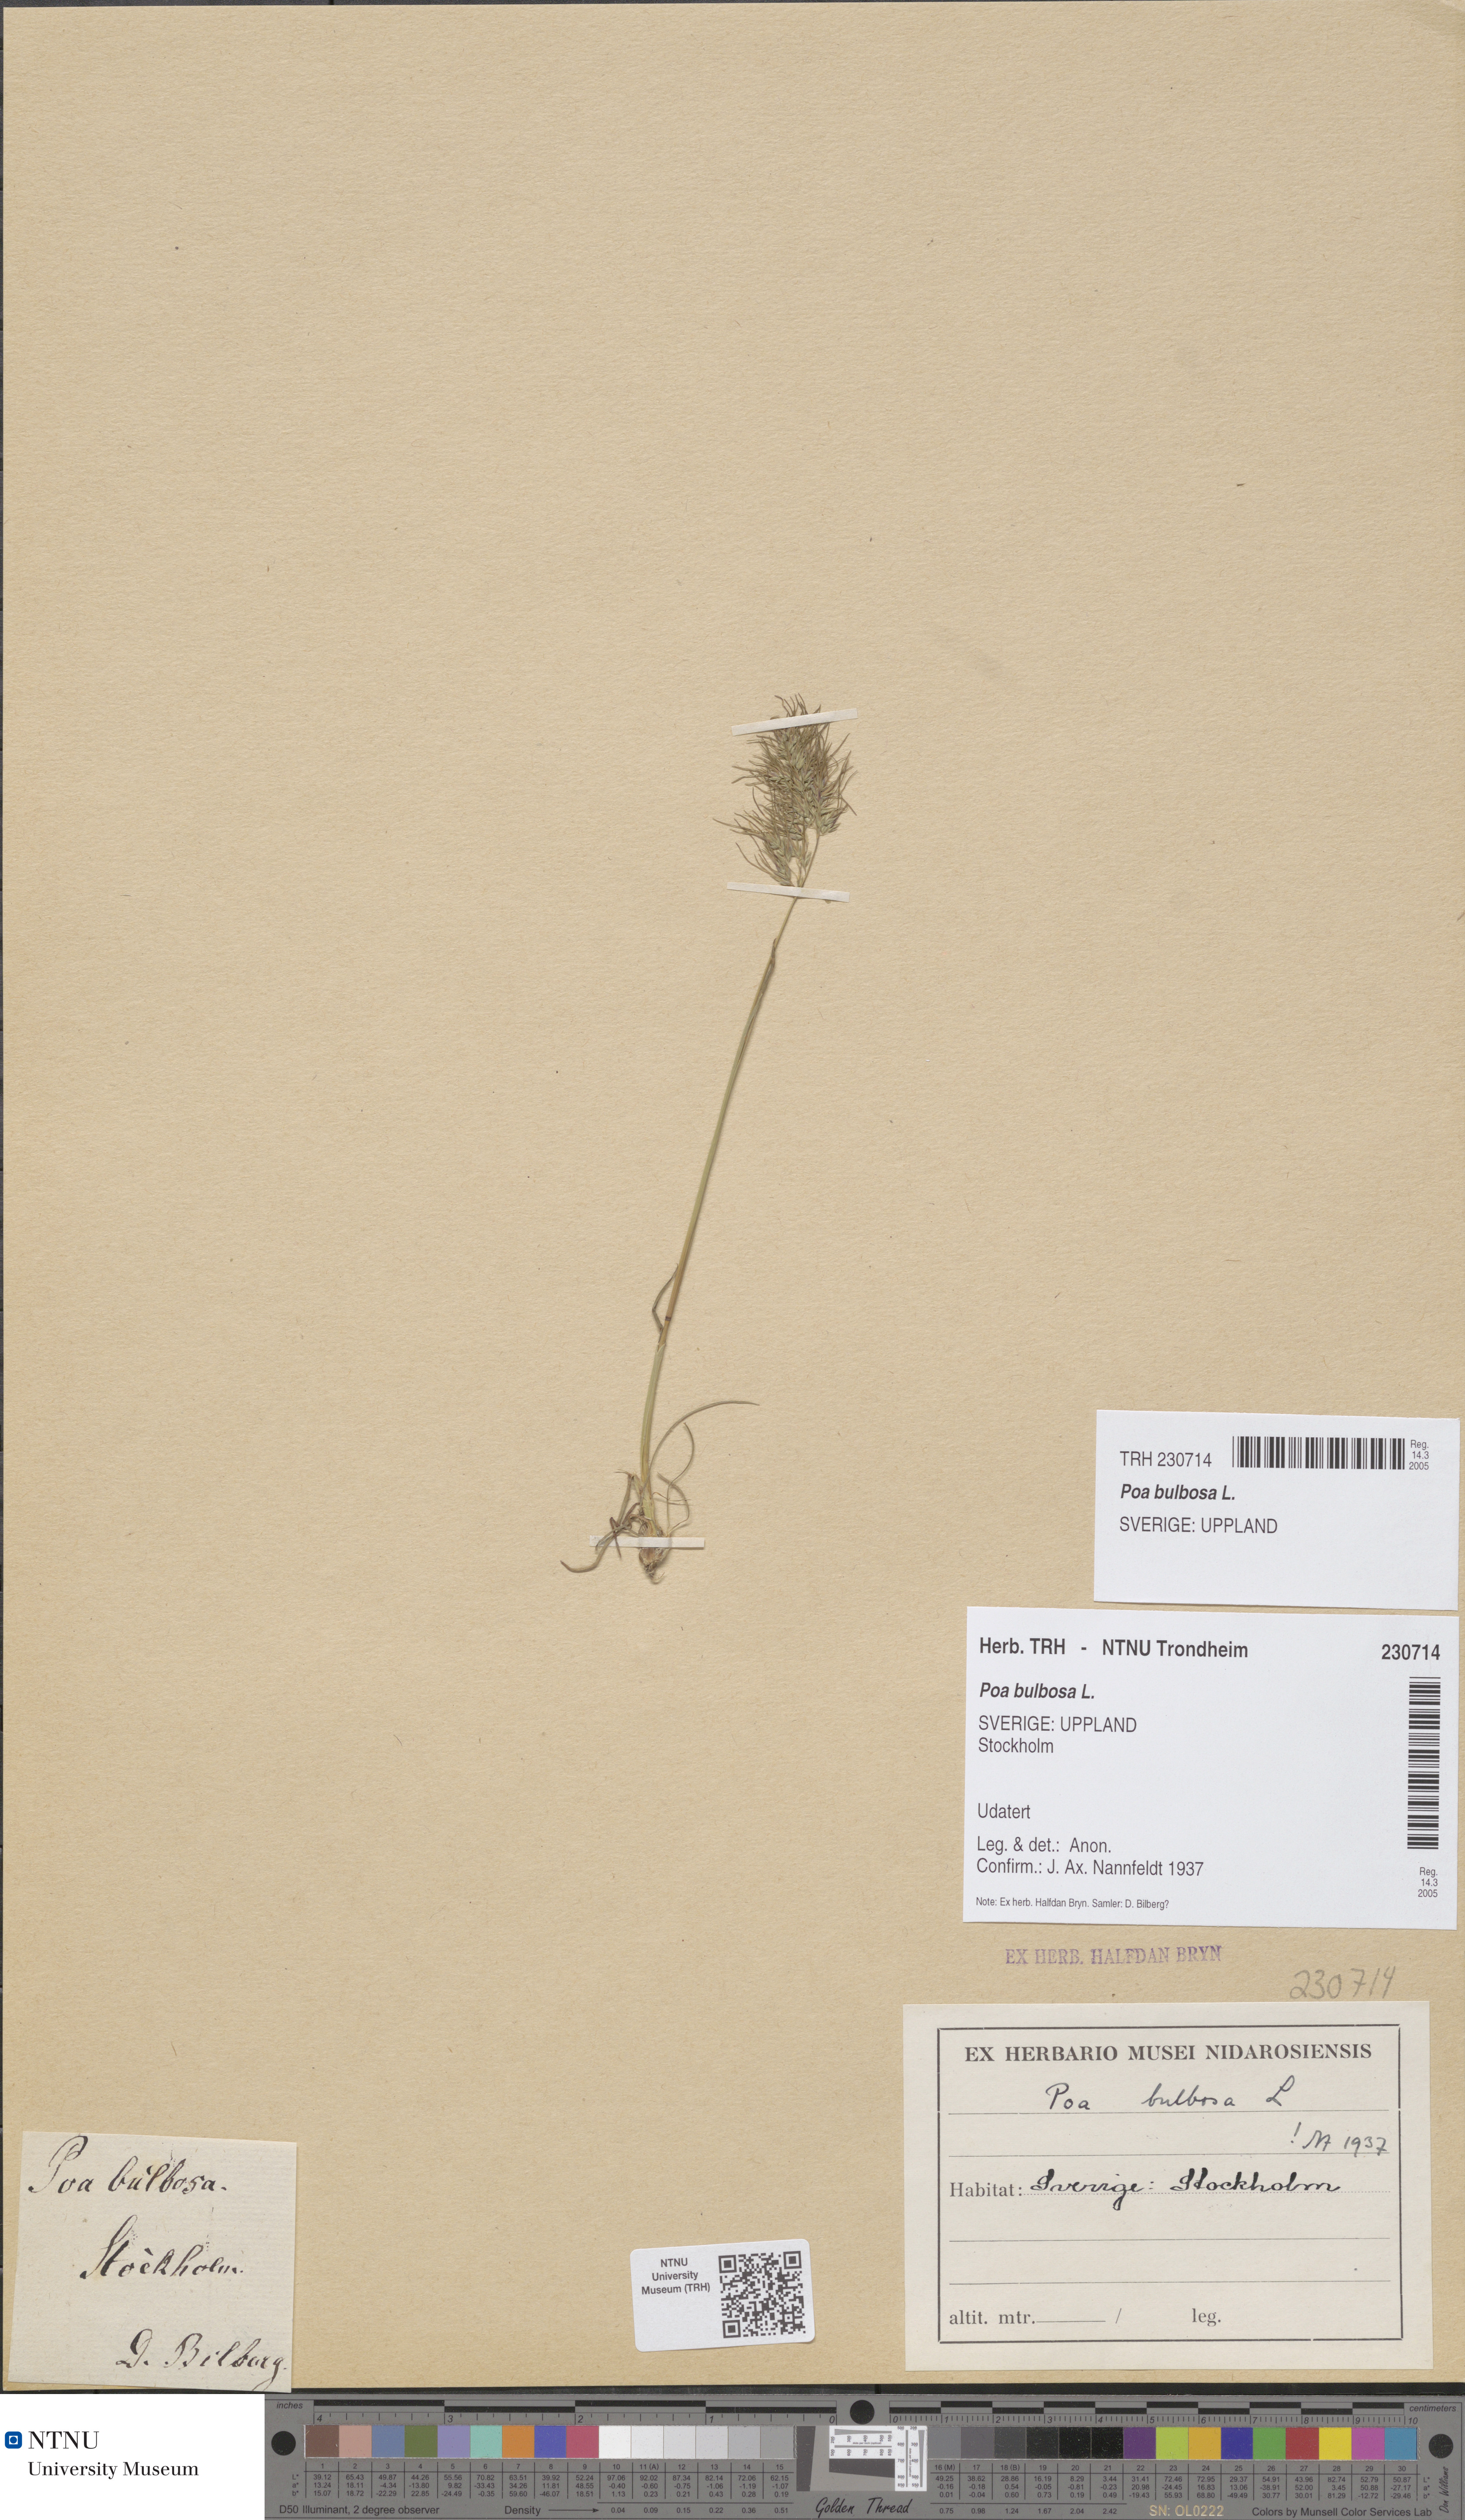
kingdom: Plantae
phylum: Tracheophyta
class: Liliopsida
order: Poales
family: Poaceae
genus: Poa
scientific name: Poa bulbosa
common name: Bulbous bluegrass
